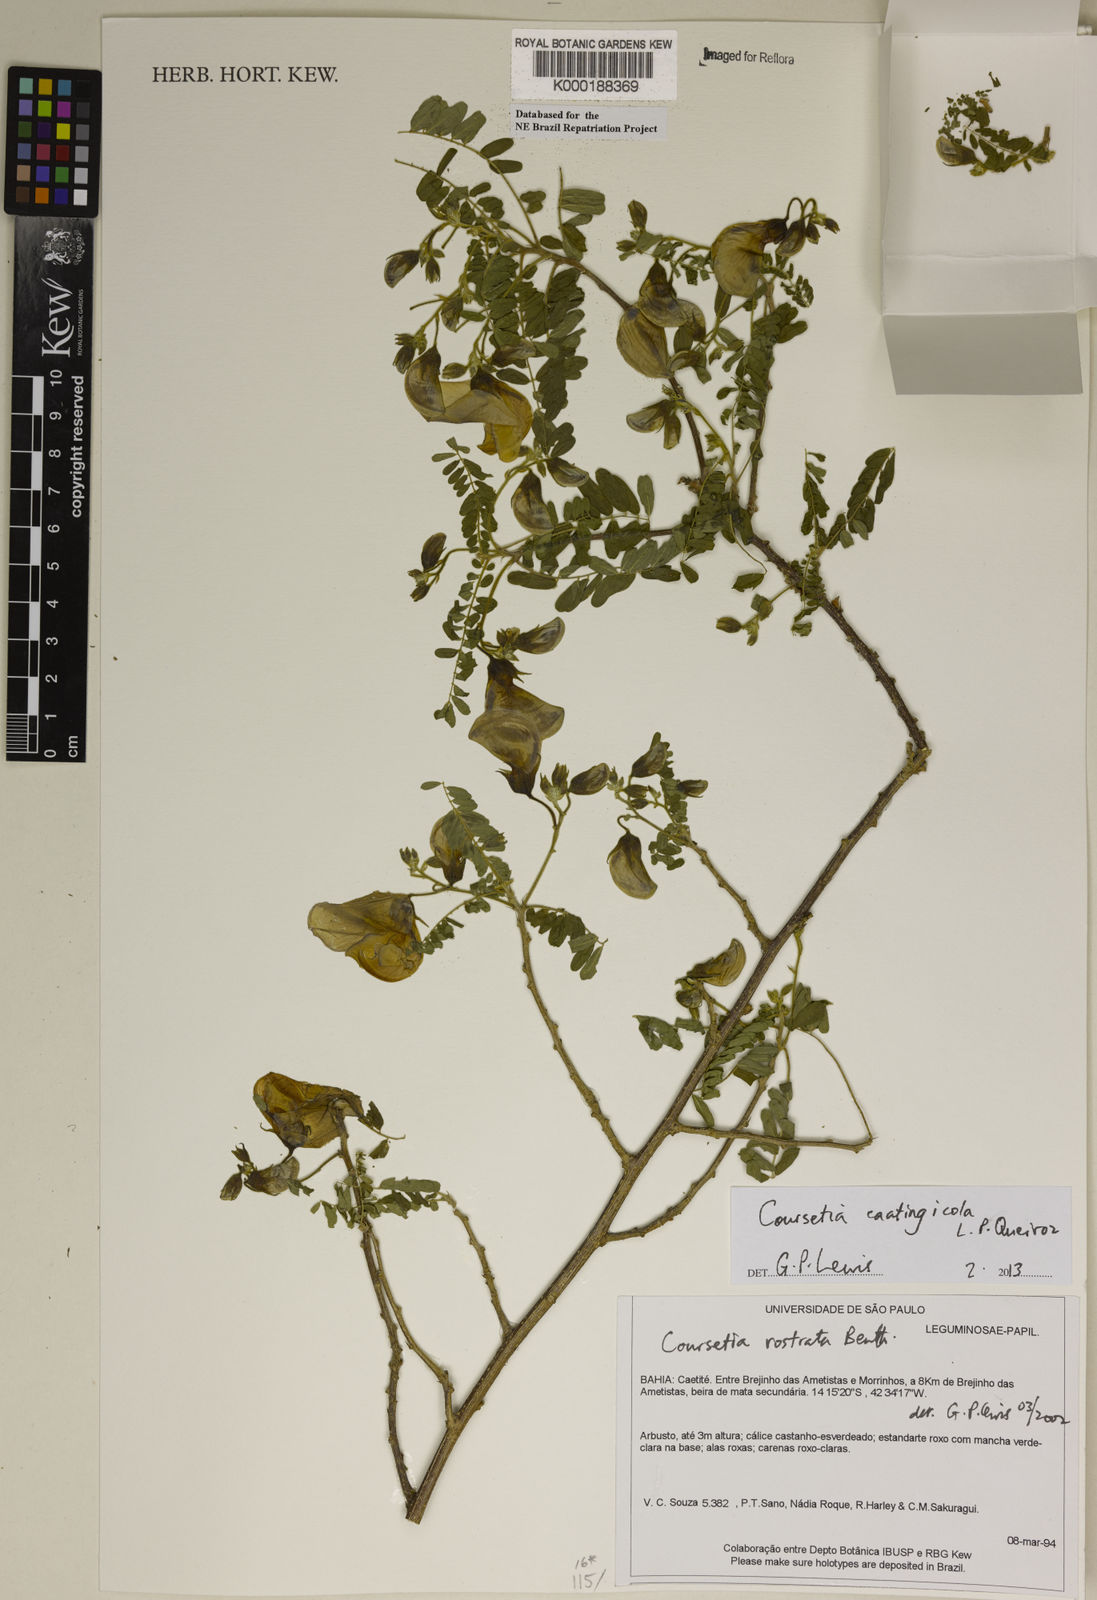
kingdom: Plantae
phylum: Tracheophyta
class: Magnoliopsida
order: Fabales
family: Fabaceae
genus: Coursetia
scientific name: Coursetia rostrata
